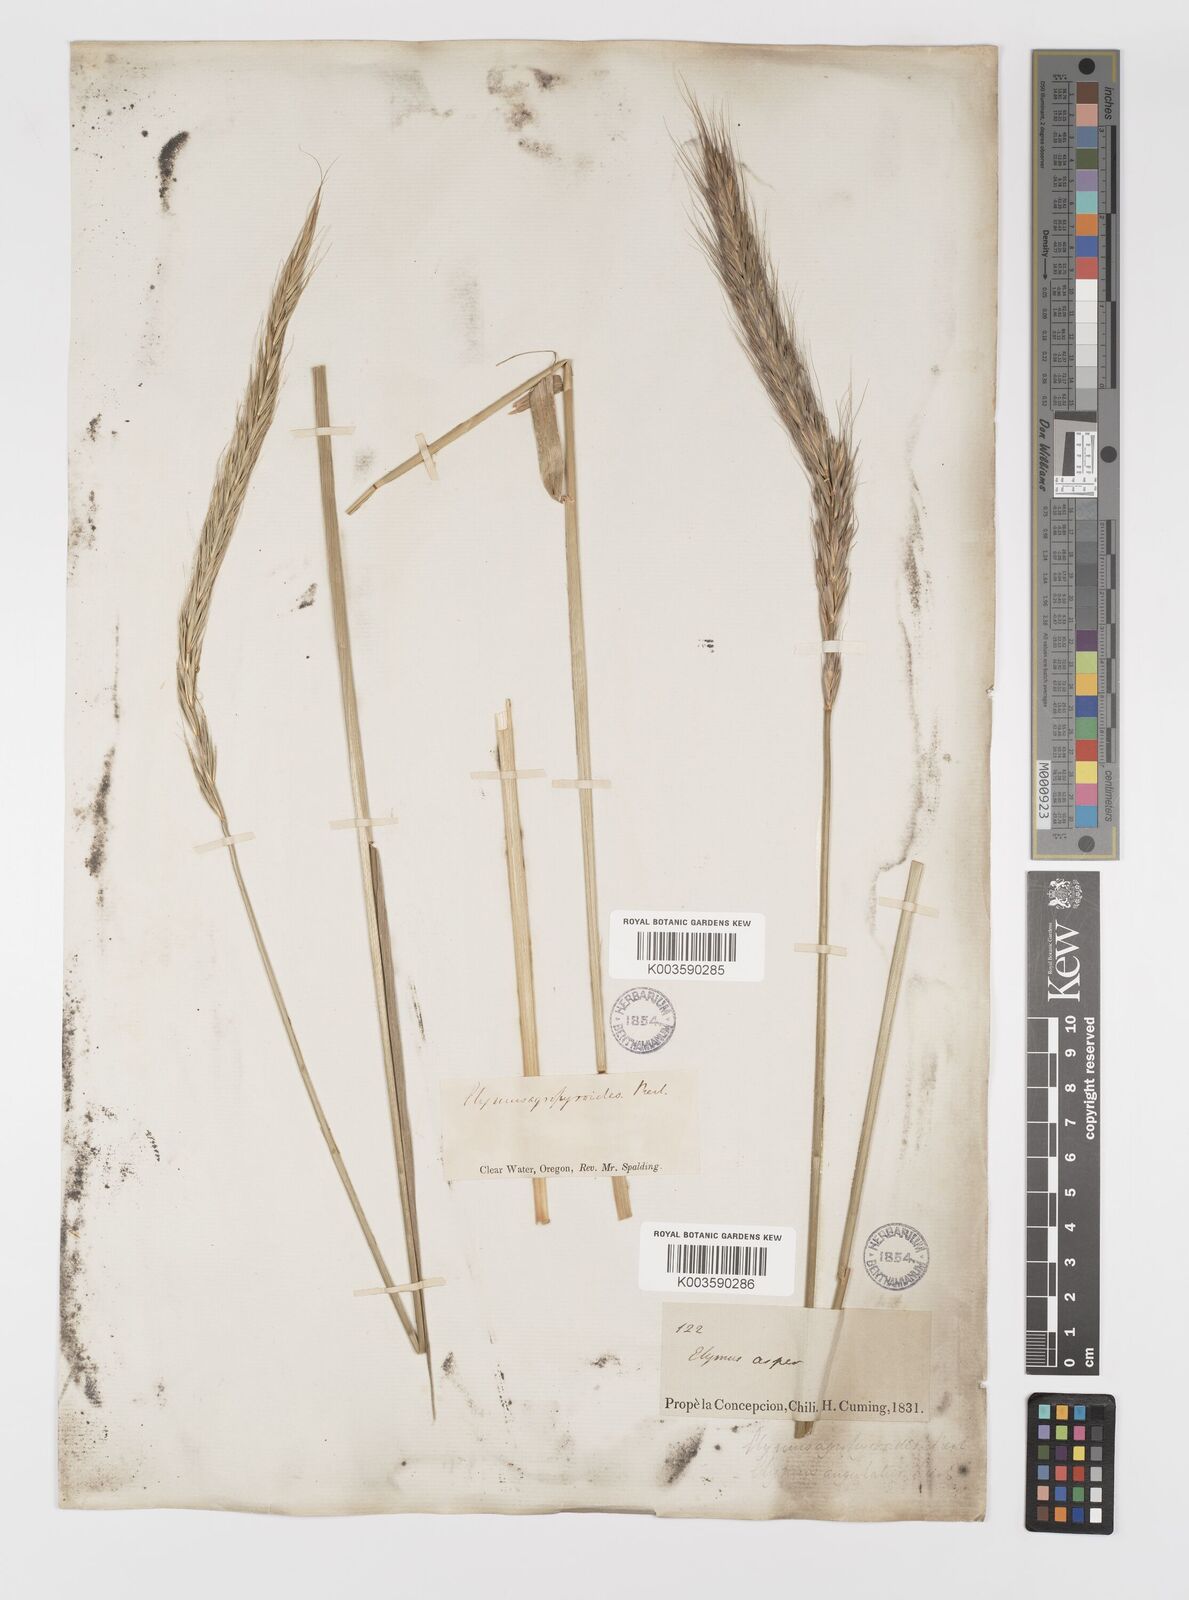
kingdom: Plantae
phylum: Tracheophyta
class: Liliopsida
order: Poales
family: Poaceae
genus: Elymus
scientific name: Elymus
